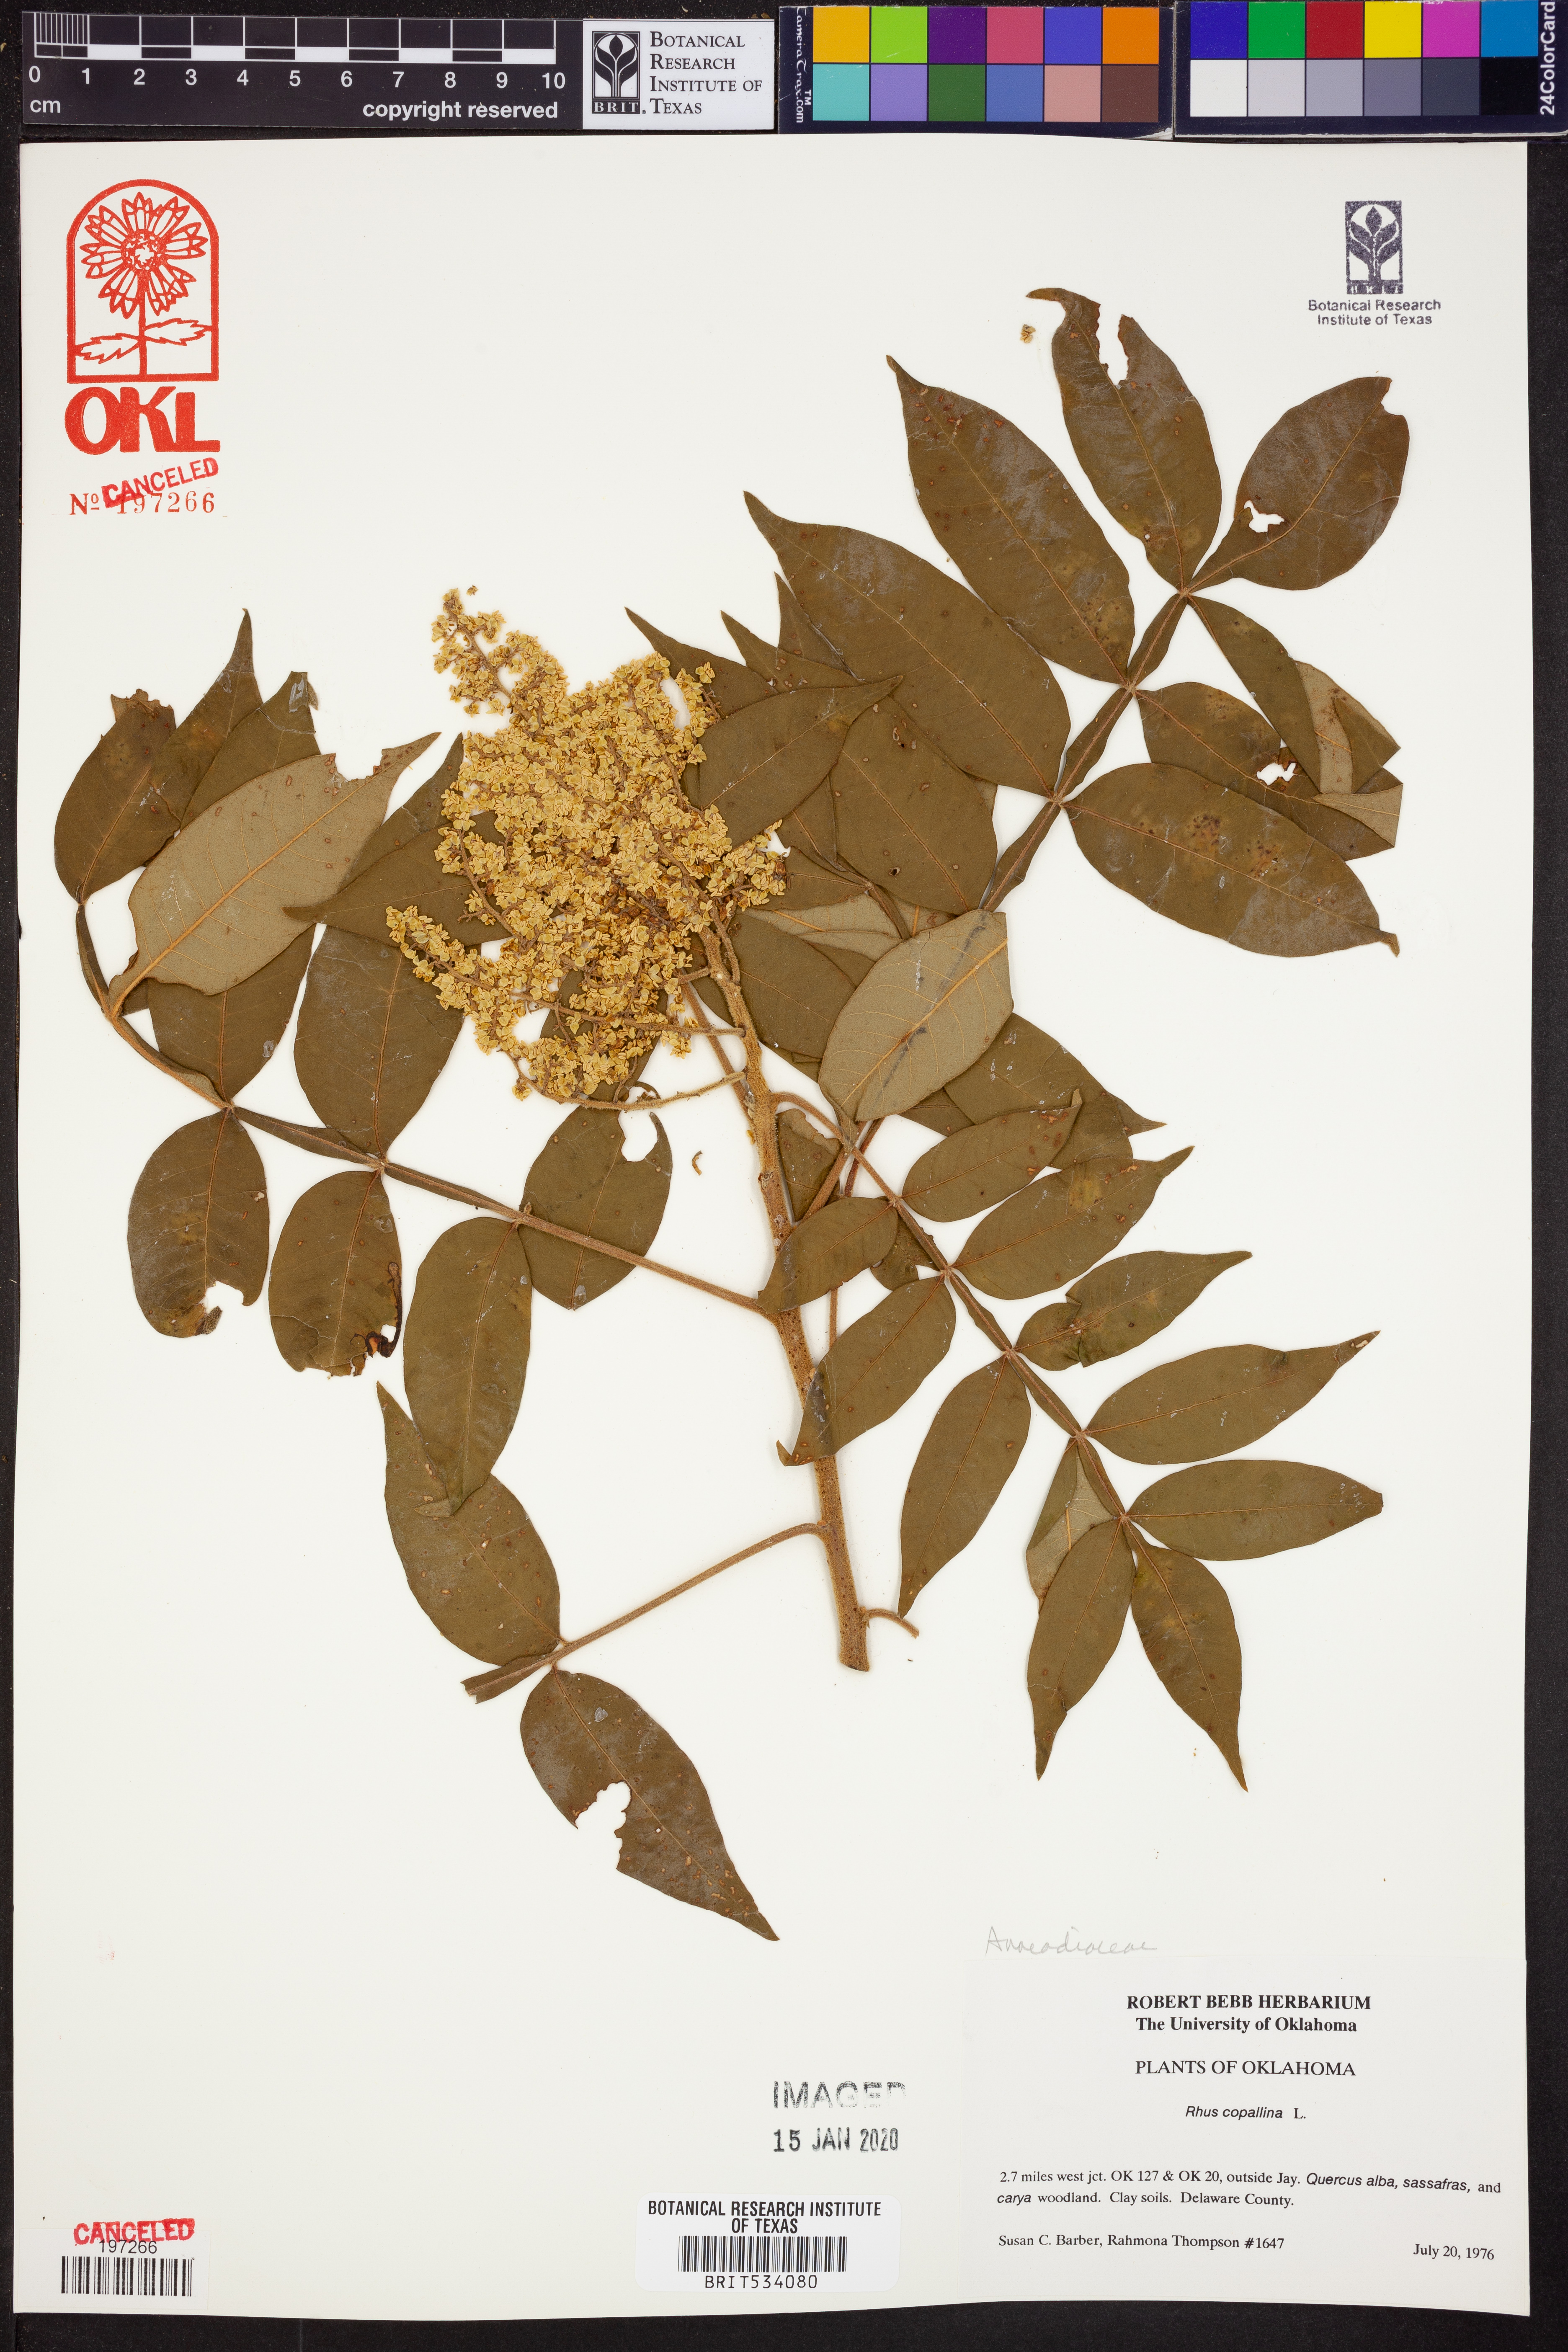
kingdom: Plantae
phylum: Tracheophyta
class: Magnoliopsida
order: Sapindales
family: Anacardiaceae
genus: Rhus
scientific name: Rhus copallina
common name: Shining sumac
